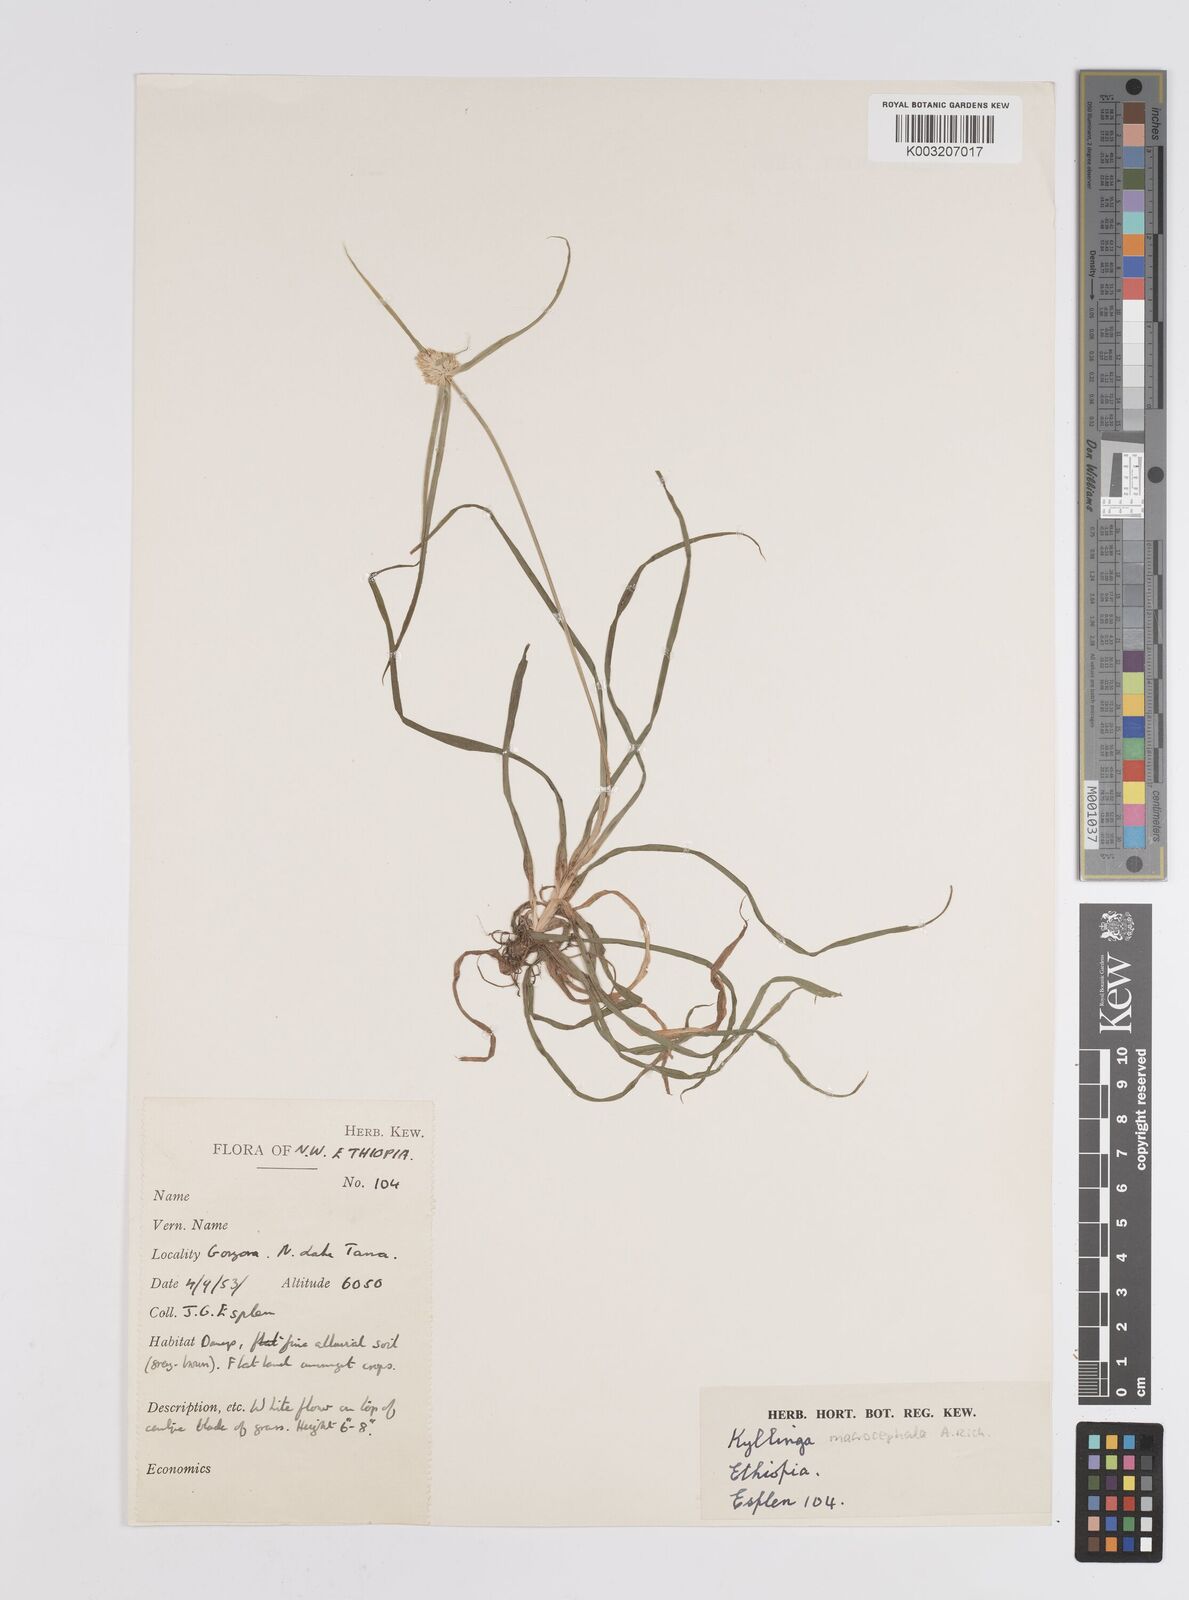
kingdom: Plantae
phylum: Tracheophyta
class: Liliopsida
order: Poales
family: Cyperaceae
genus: Cyperus
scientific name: Cyperus
